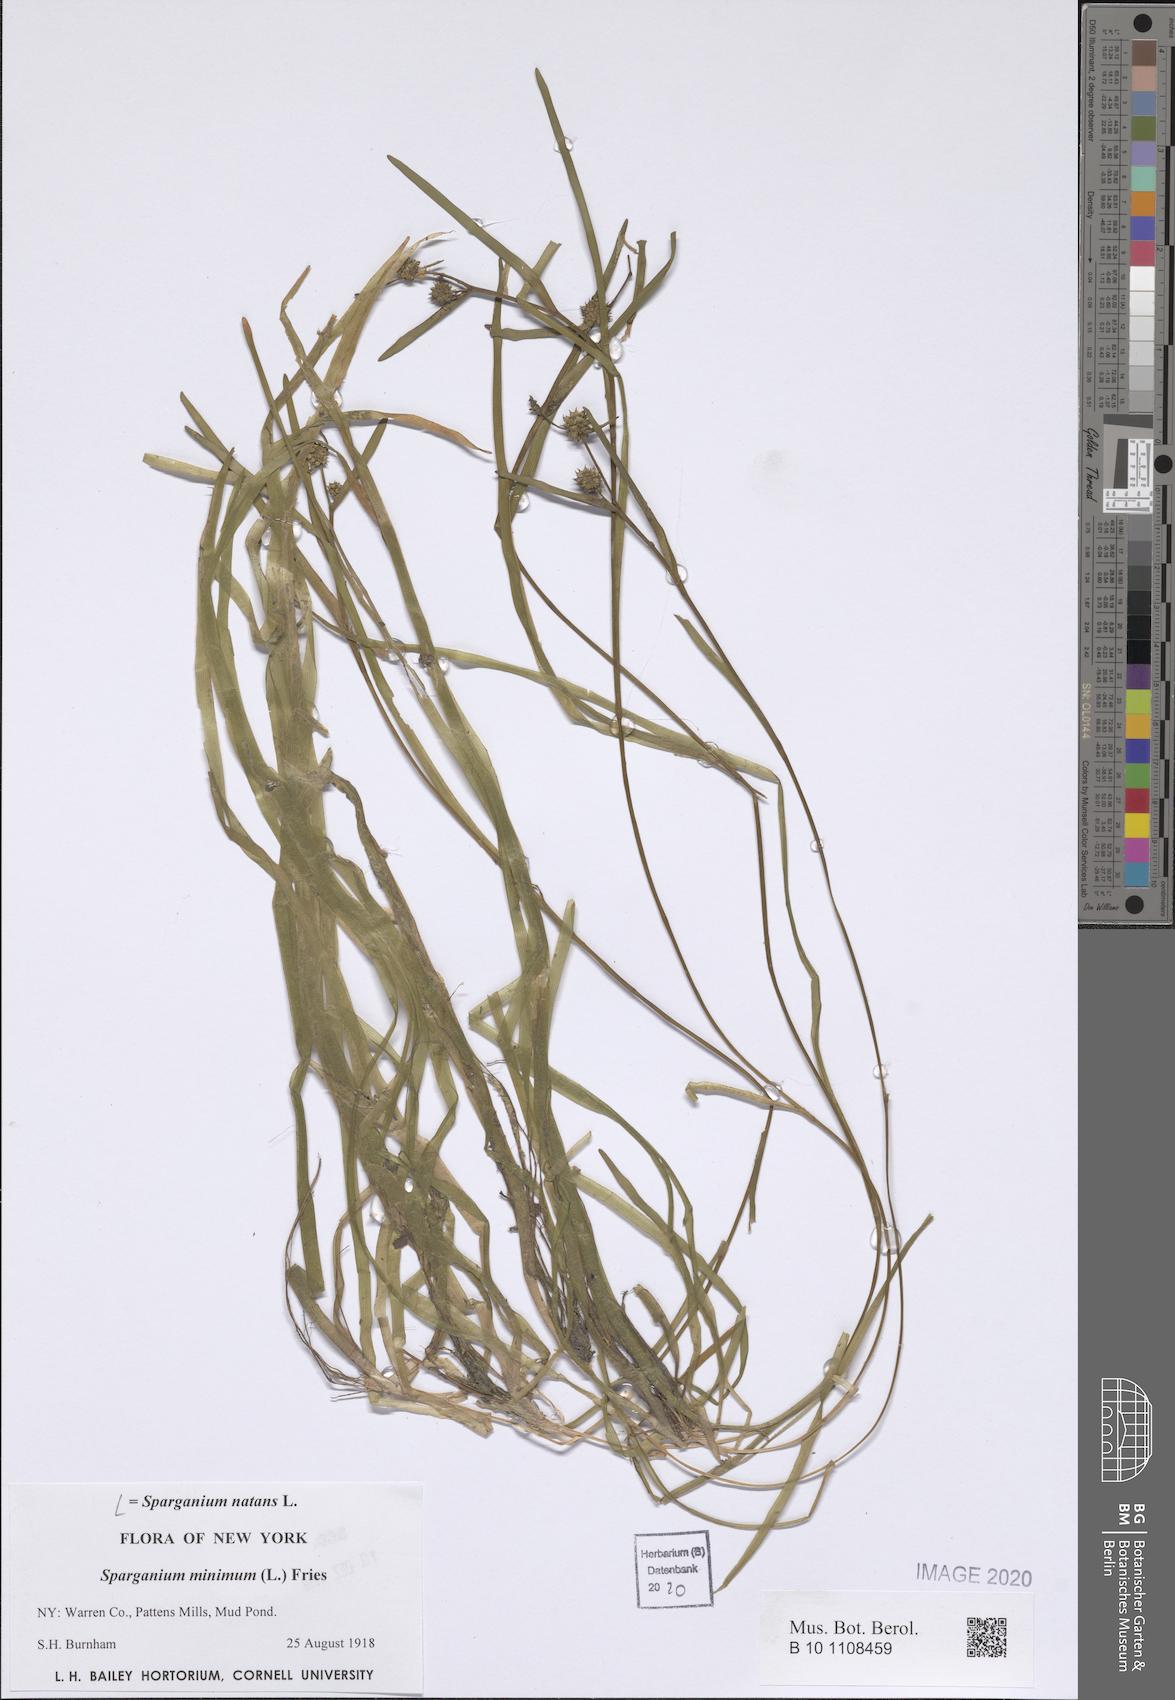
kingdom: Plantae
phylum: Tracheophyta
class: Liliopsida
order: Poales
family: Typhaceae
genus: Sparganium
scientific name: Sparganium natans
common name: Least bur-reed
